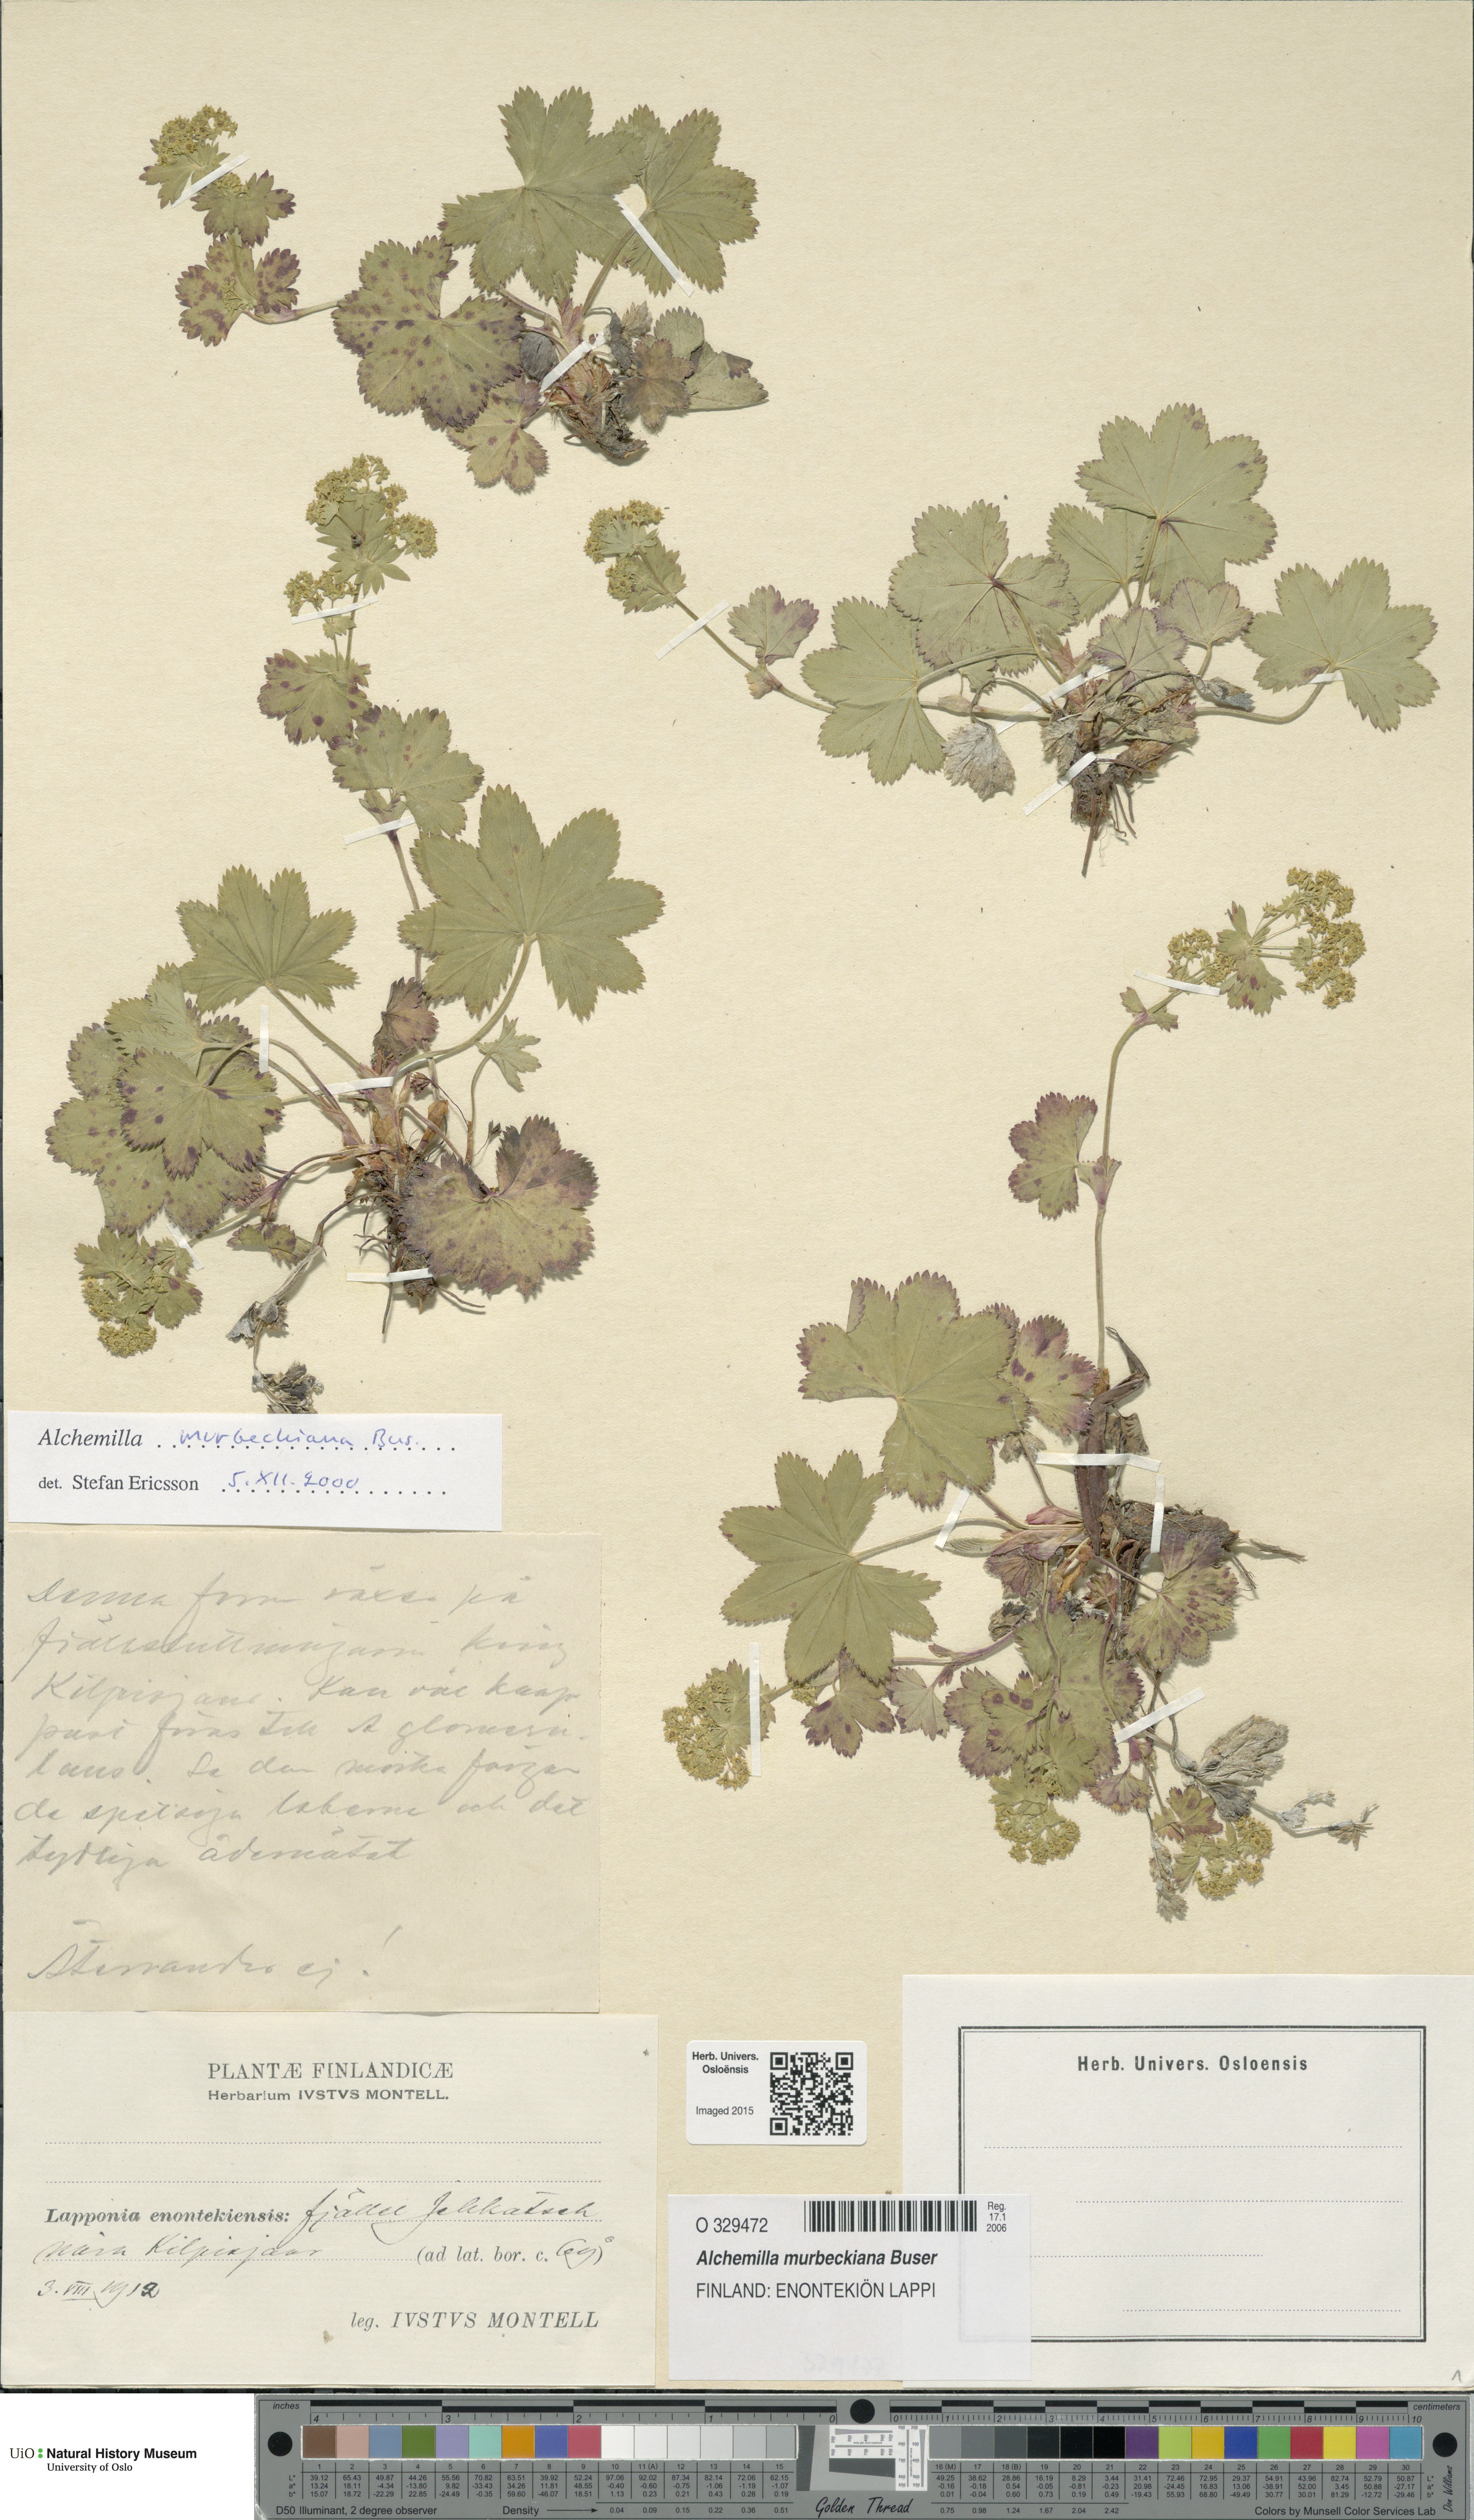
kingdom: Plantae
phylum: Tracheophyta
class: Magnoliopsida
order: Rosales
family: Rosaceae
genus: Alchemilla
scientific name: Alchemilla murbeckiana
